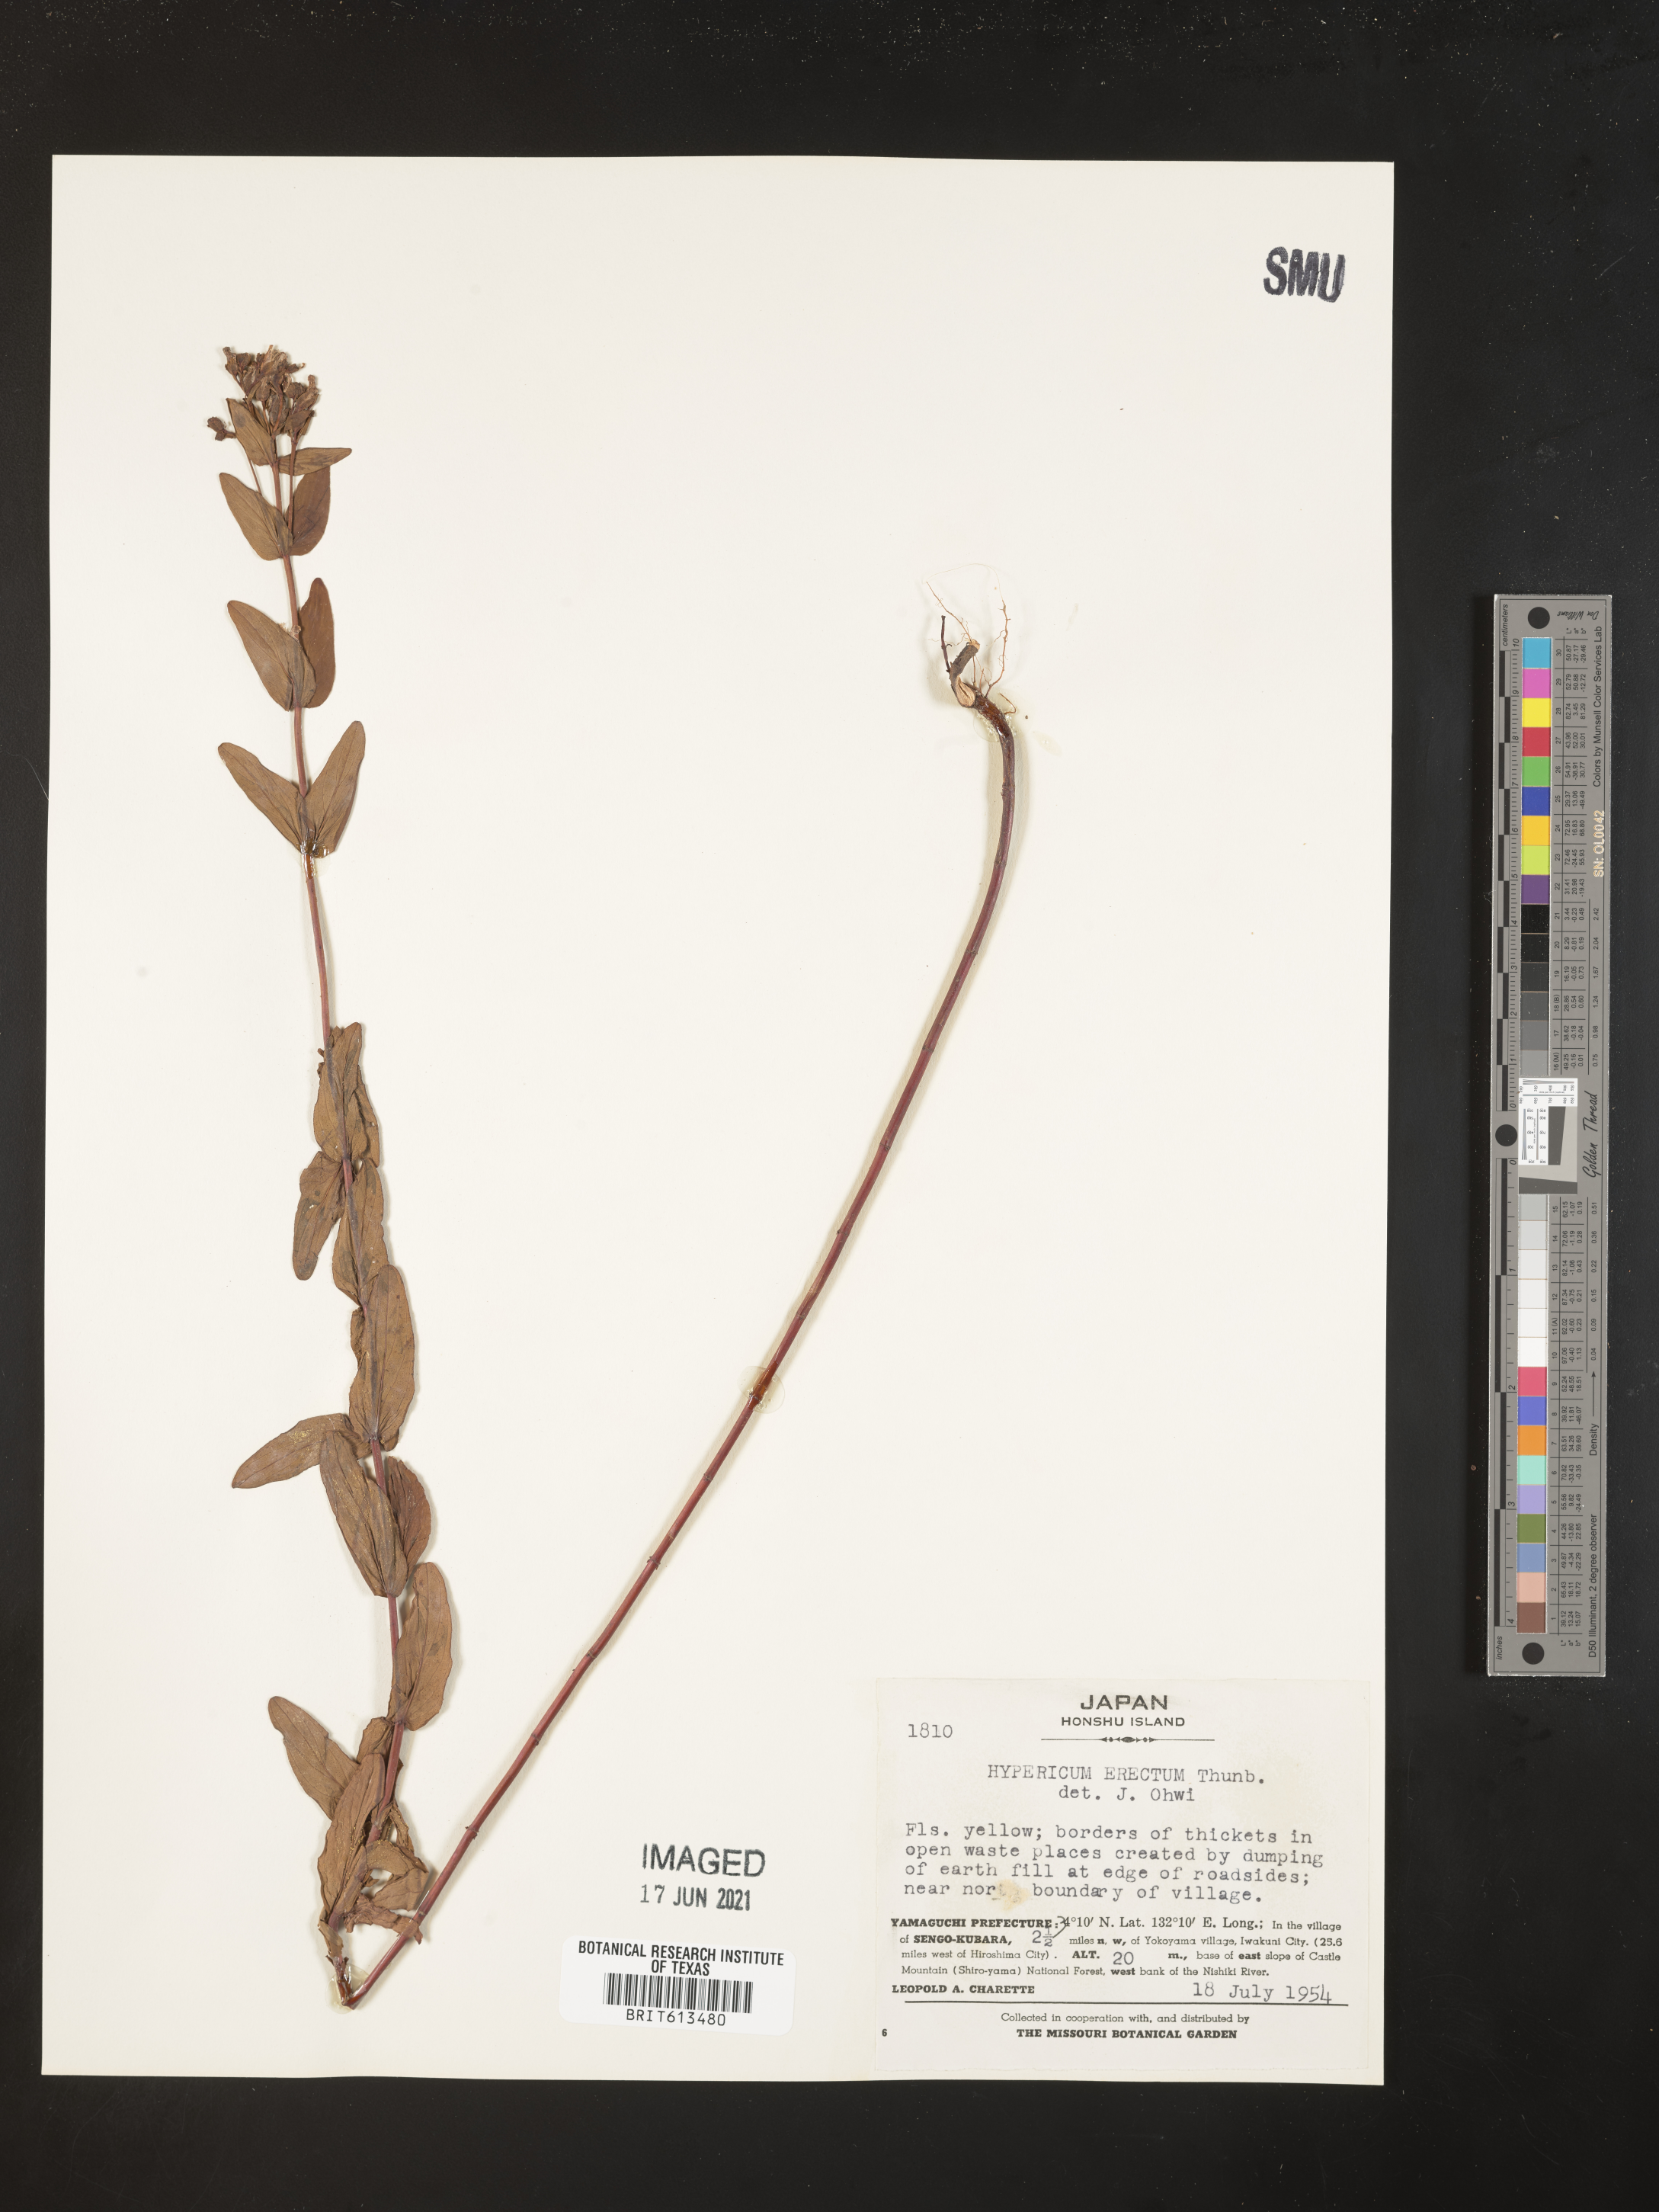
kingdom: Plantae
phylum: Tracheophyta
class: Magnoliopsida
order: Malpighiales
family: Hypericaceae
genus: Hypericum
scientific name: Hypericum erectum
